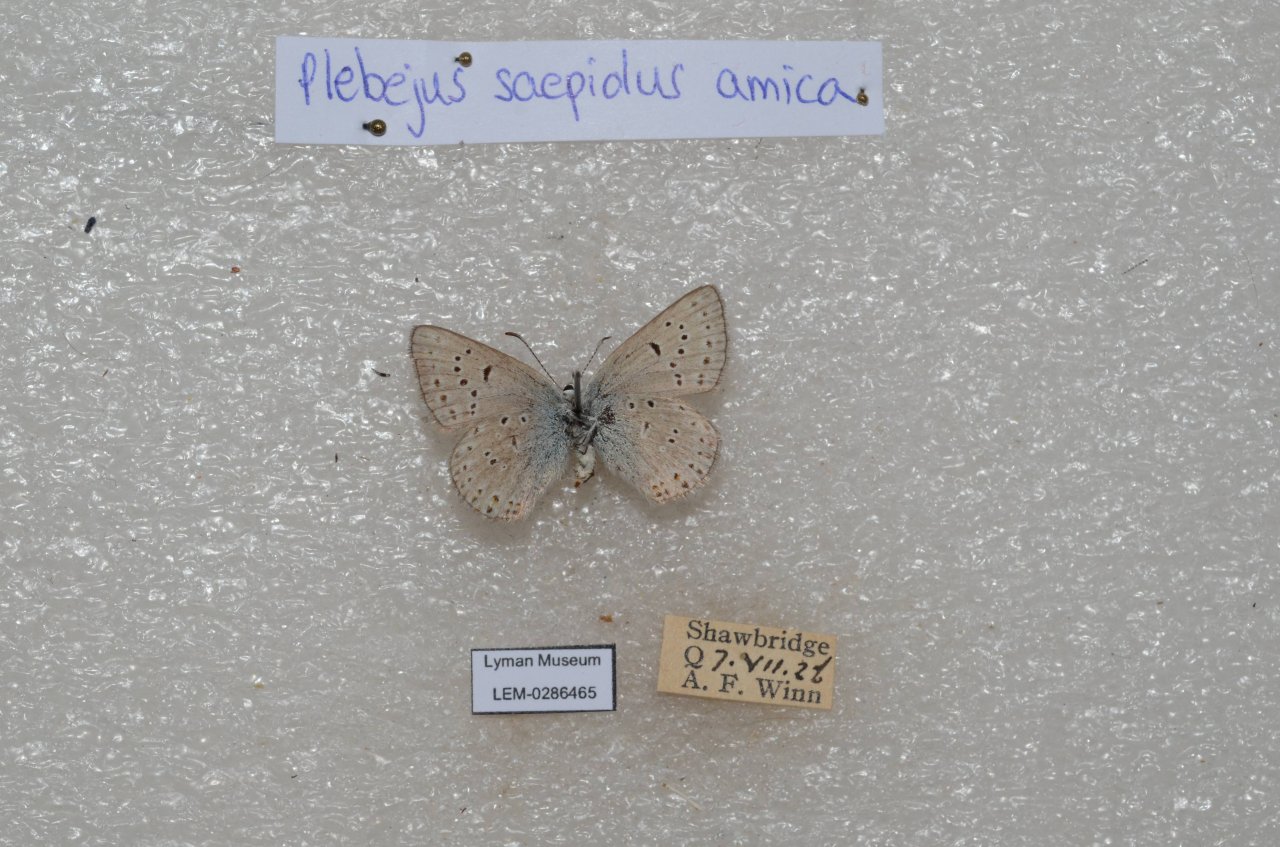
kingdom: Animalia
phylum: Arthropoda
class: Insecta
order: Lepidoptera
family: Lycaenidae
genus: Plebejus
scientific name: Plebejus saepiolus
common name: Greenish Blue
